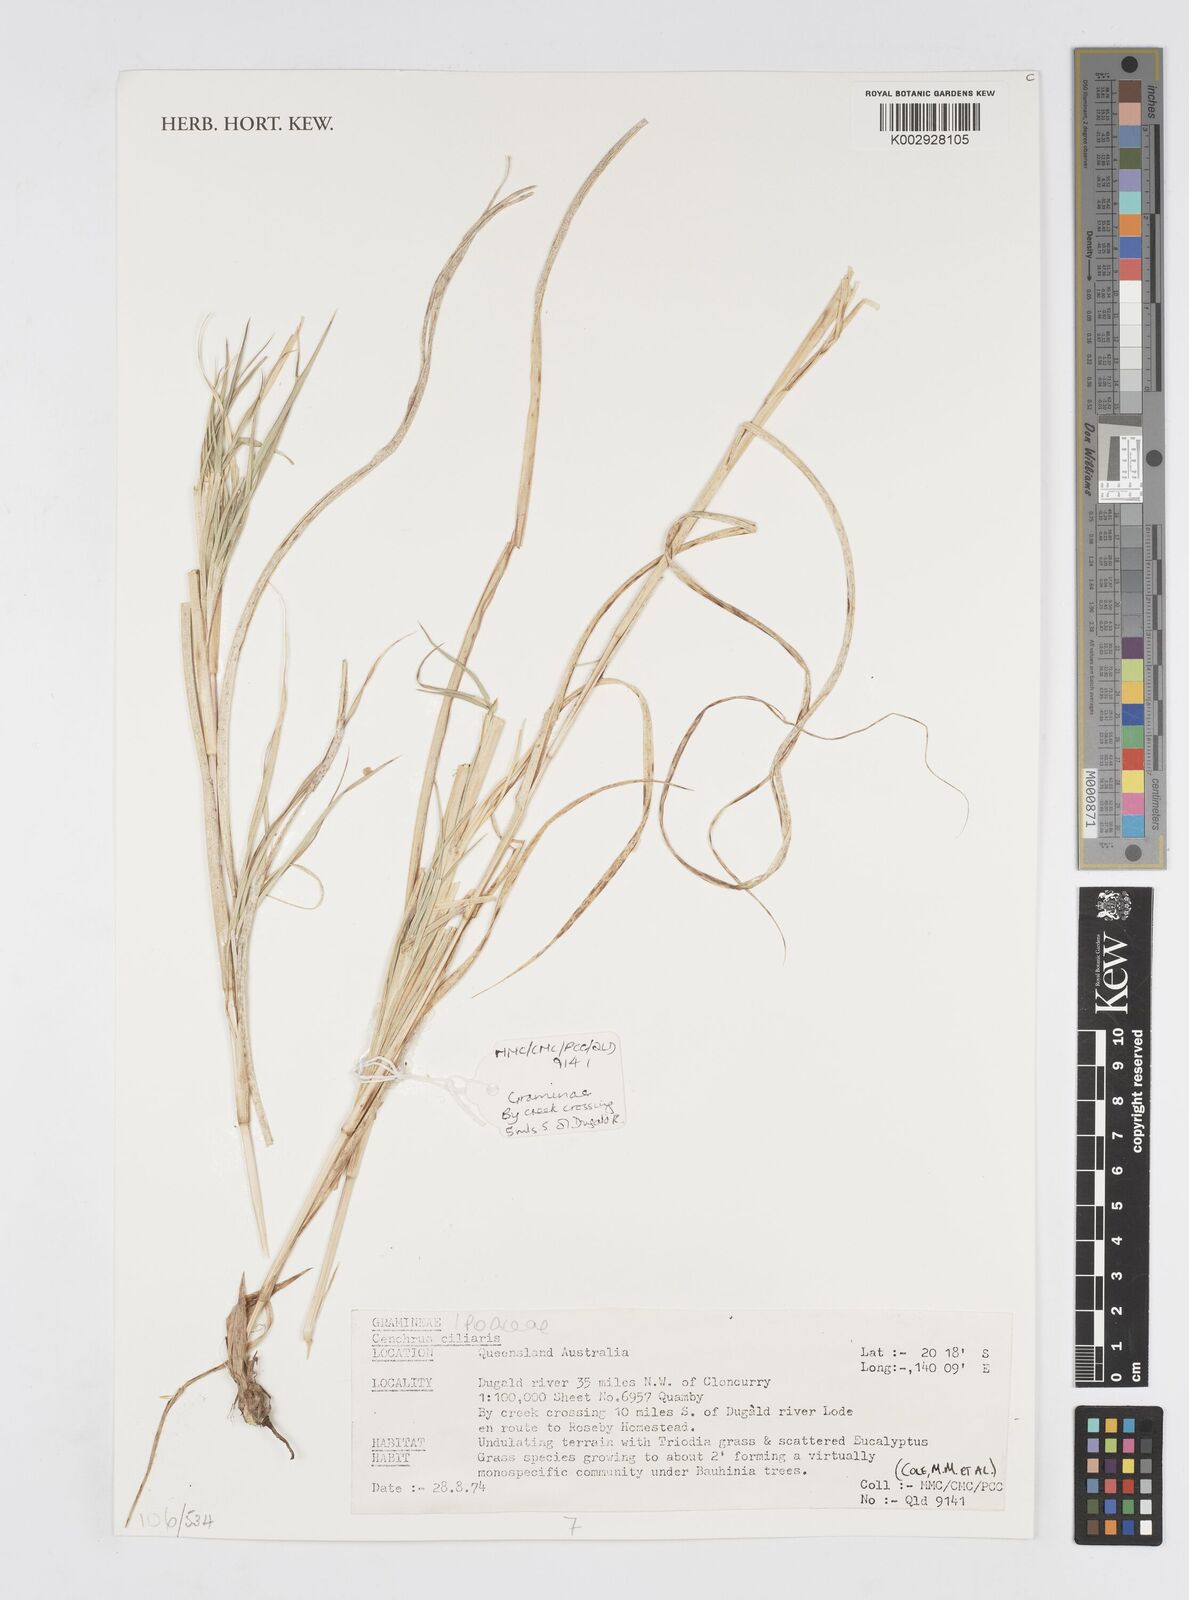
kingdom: Plantae
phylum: Tracheophyta
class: Liliopsida
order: Poales
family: Poaceae
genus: Cenchrus
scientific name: Cenchrus ciliaris
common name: Buffelgrass
